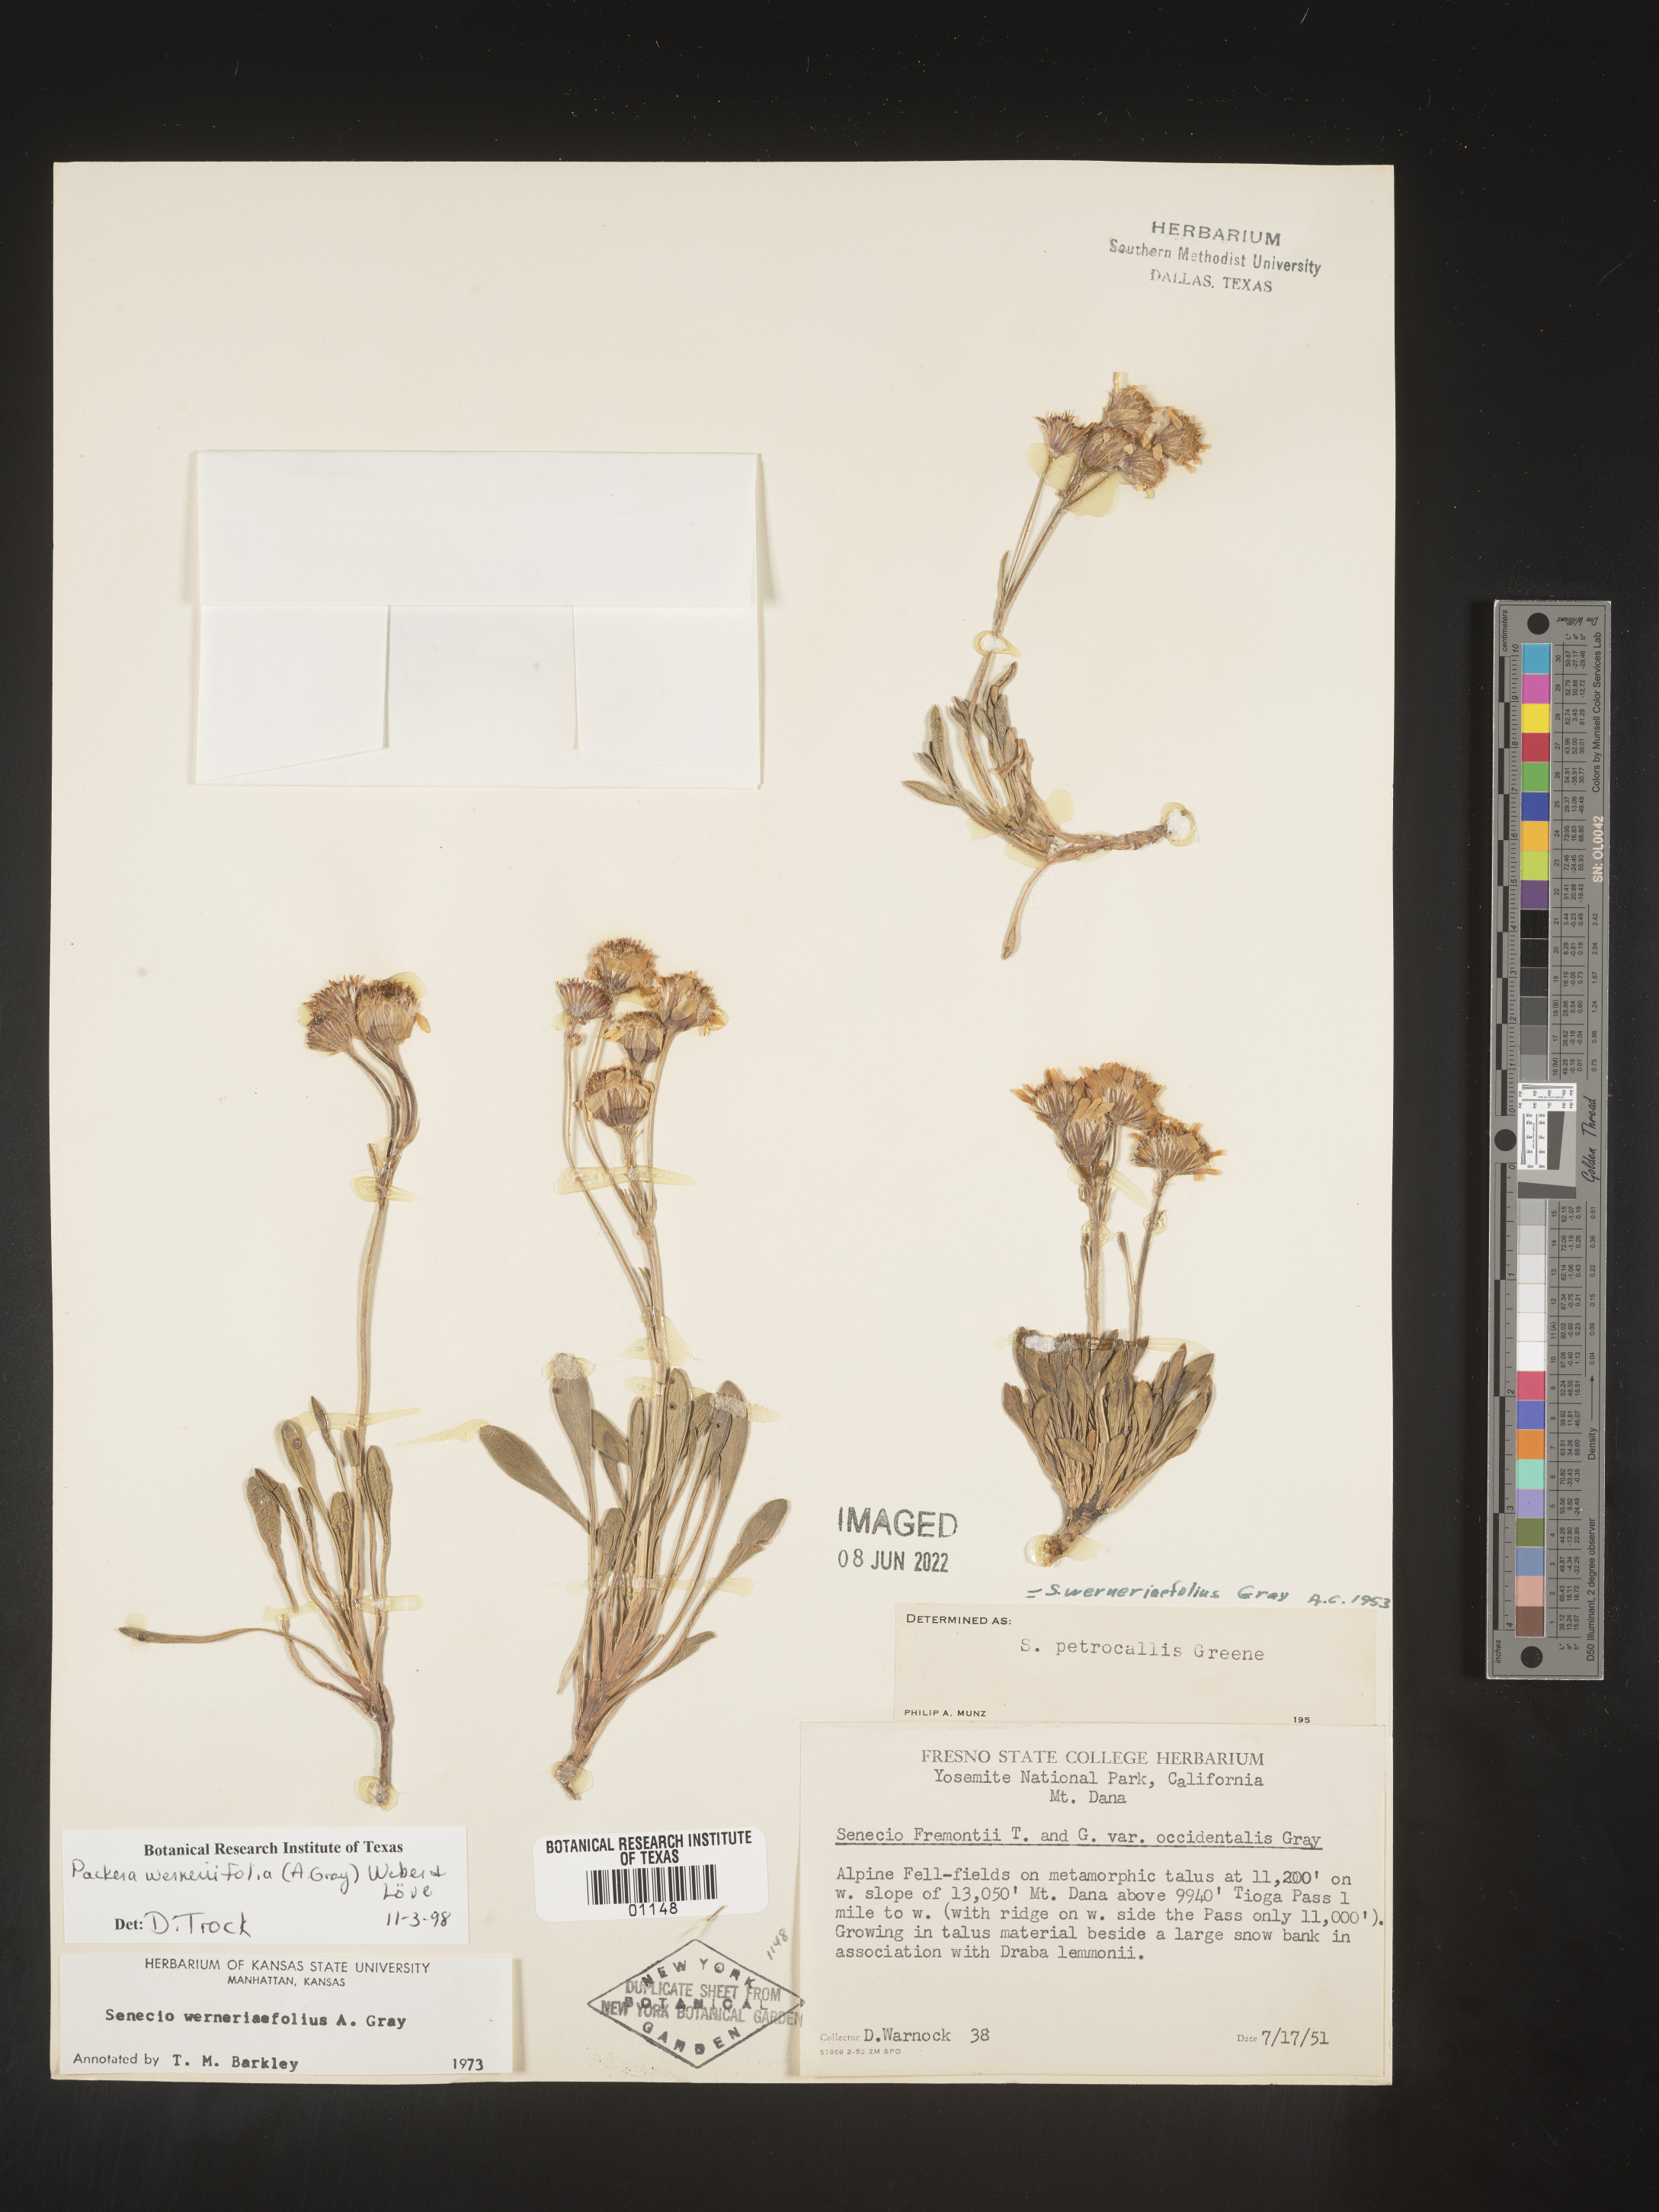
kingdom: Plantae
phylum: Tracheophyta
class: Magnoliopsida
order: Asterales
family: Asteraceae
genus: Packera
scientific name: Packera werneriifolia
